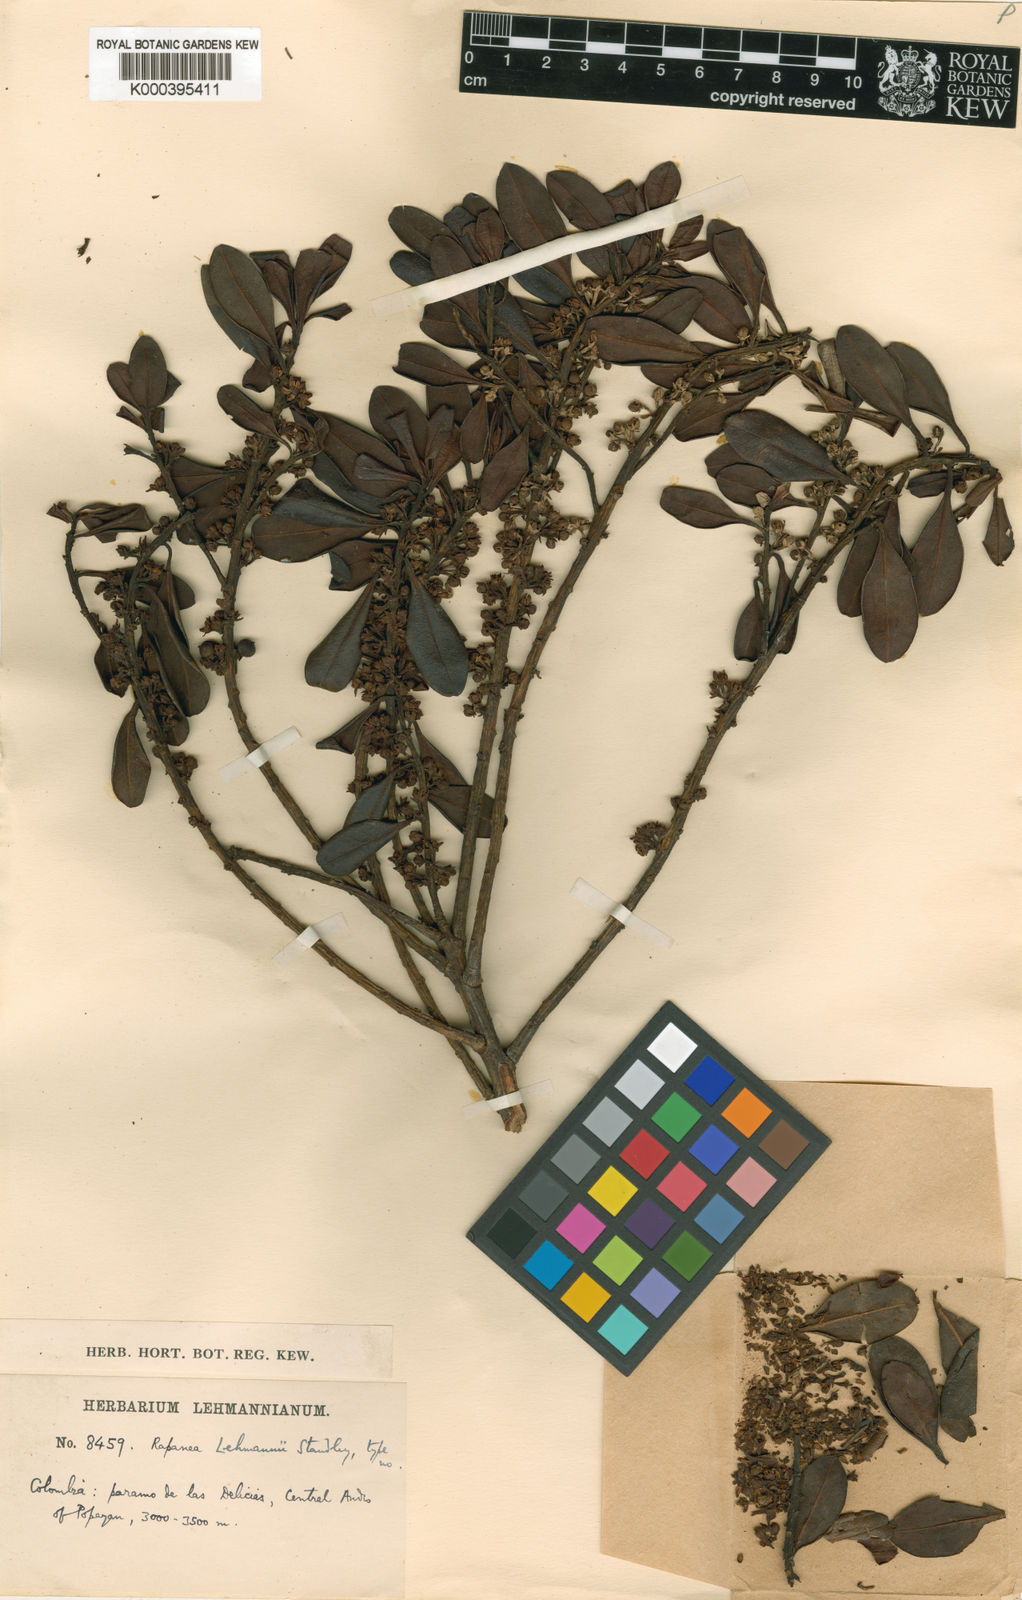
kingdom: Plantae
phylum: Tracheophyta
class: Magnoliopsida
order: Ericales
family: Primulaceae
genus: Myrsine
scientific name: Myrsine lehmannii
